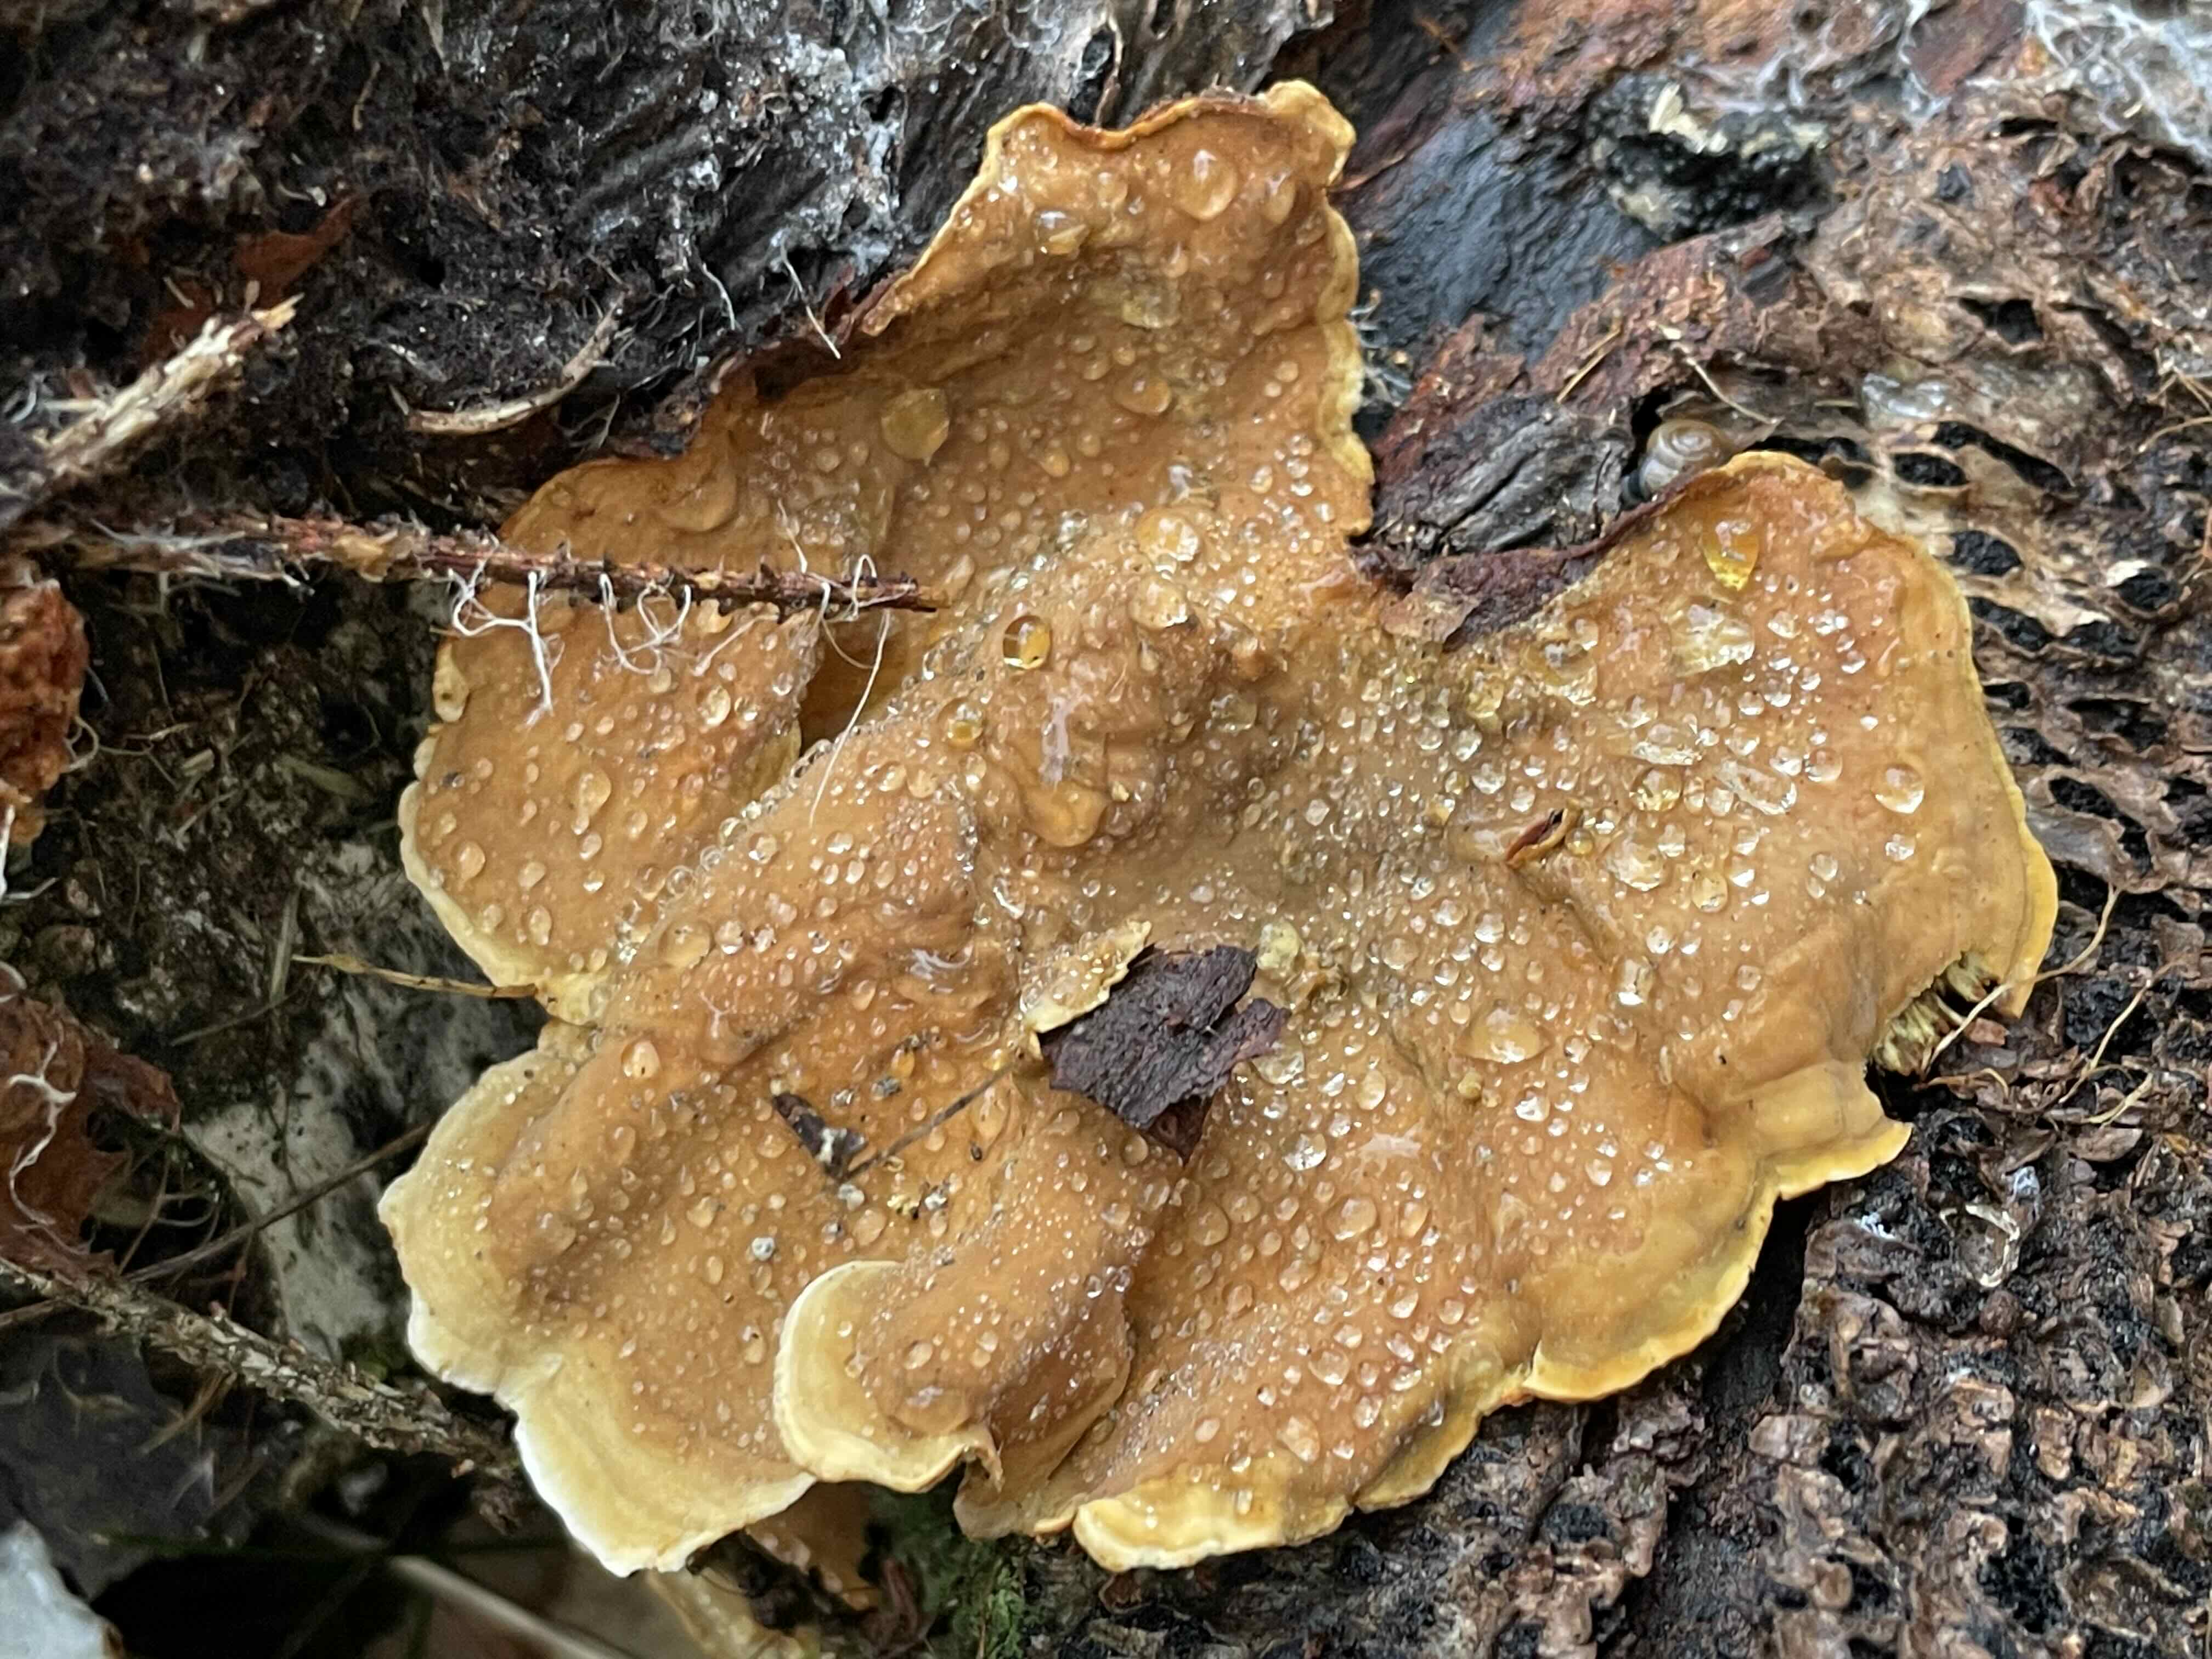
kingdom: Fungi
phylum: Basidiomycota
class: Agaricomycetes
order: Russulales
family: Stereaceae
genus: Stereum
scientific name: Stereum subtomentosum
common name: smuk lædersvamp
